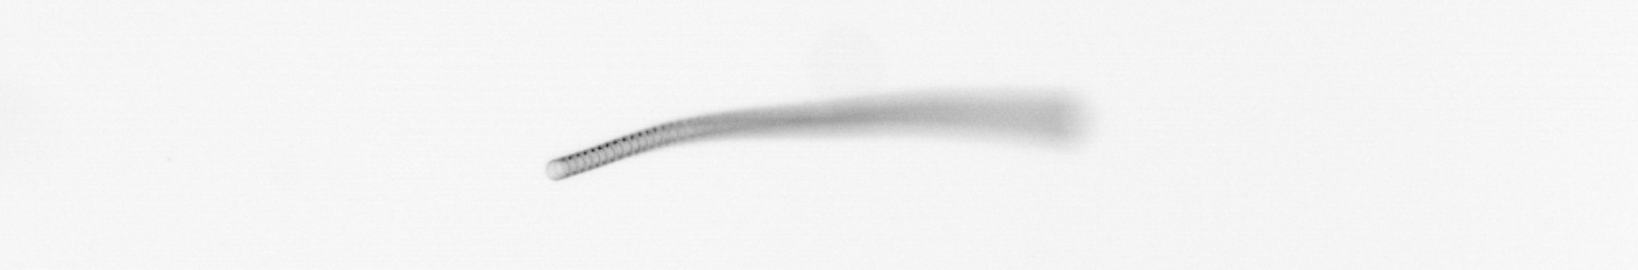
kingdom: Chromista
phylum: Ochrophyta
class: Bacillariophyceae
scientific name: Bacillariophyceae
